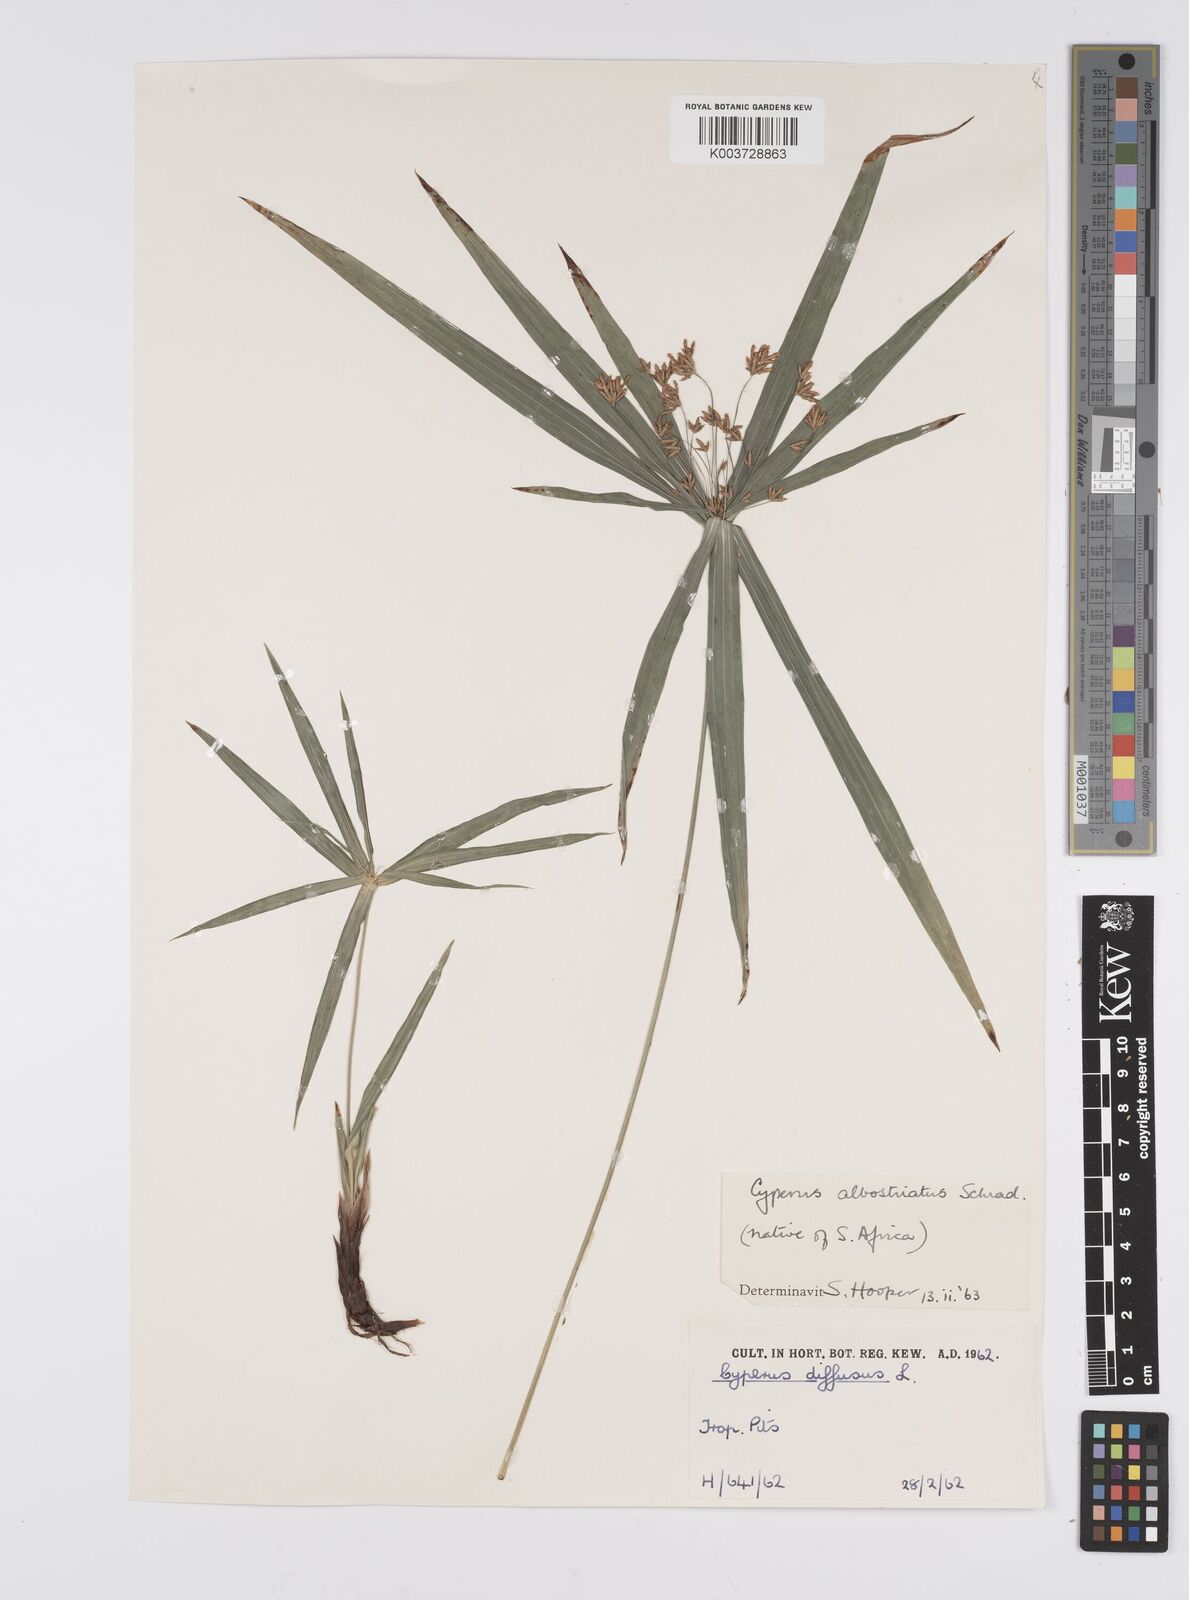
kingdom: Plantae
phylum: Tracheophyta
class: Liliopsida
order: Poales
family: Cyperaceae
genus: Cyperus
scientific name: Cyperus albostriatus
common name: Dwarf umbrella-grass
